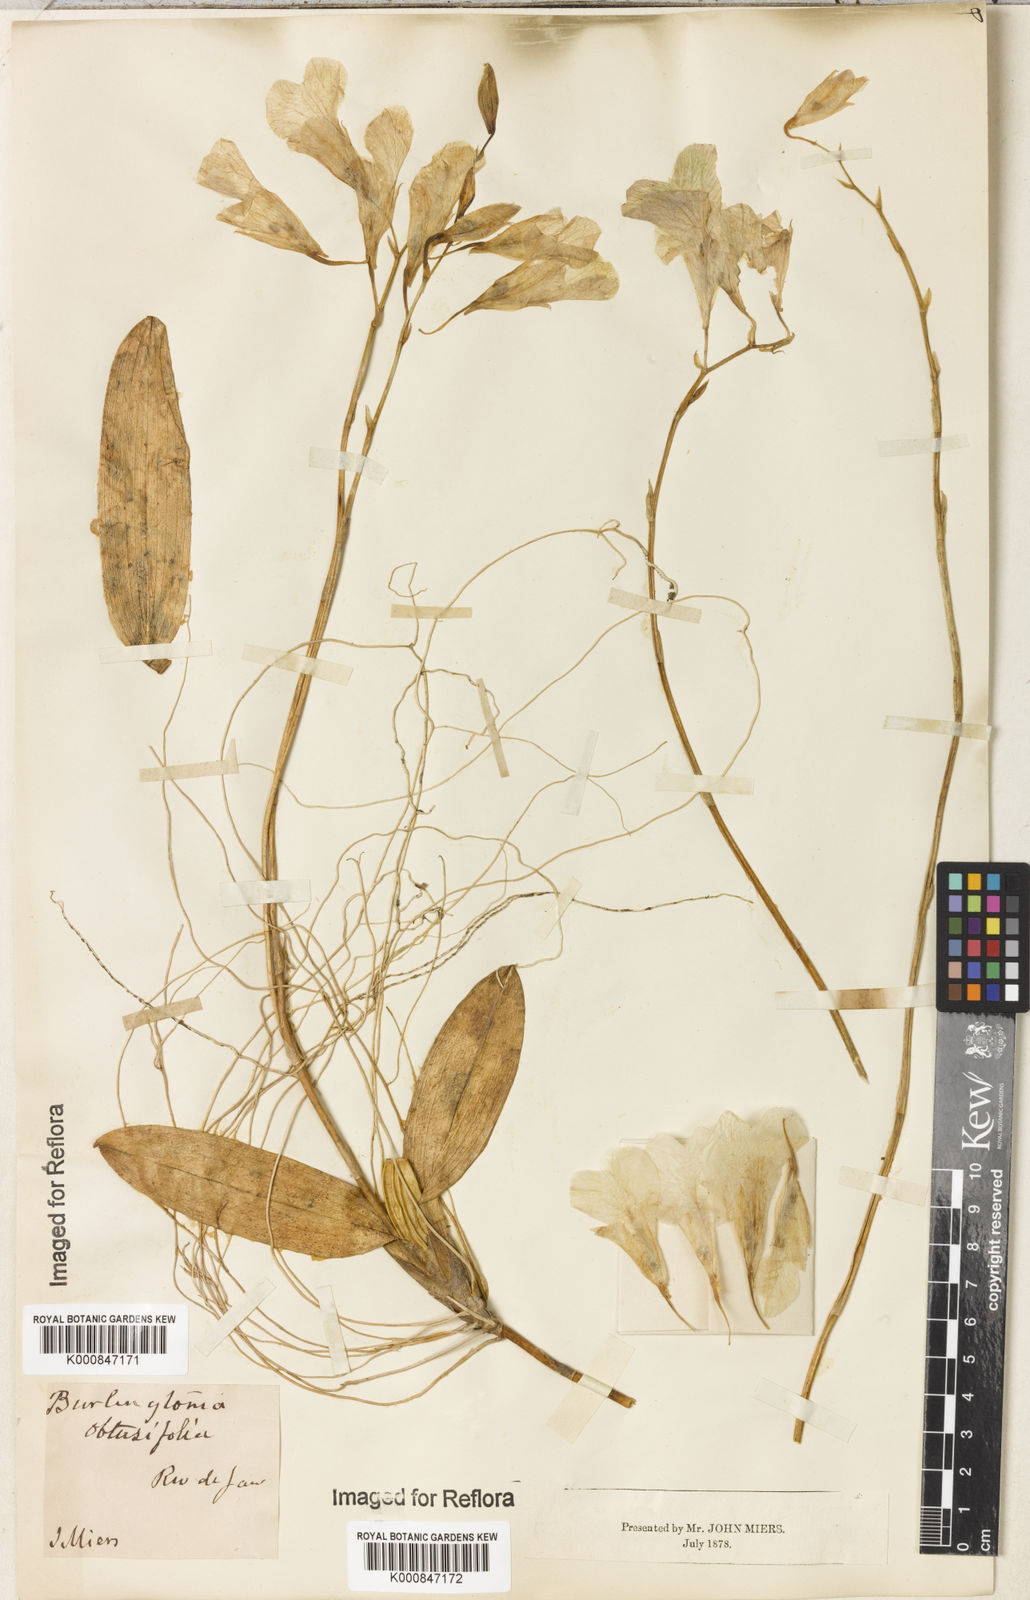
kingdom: Plantae
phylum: Tracheophyta
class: Liliopsida
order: Asparagales
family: Orchidaceae
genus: Rodriguezia
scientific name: Rodriguezia obtusifolia
